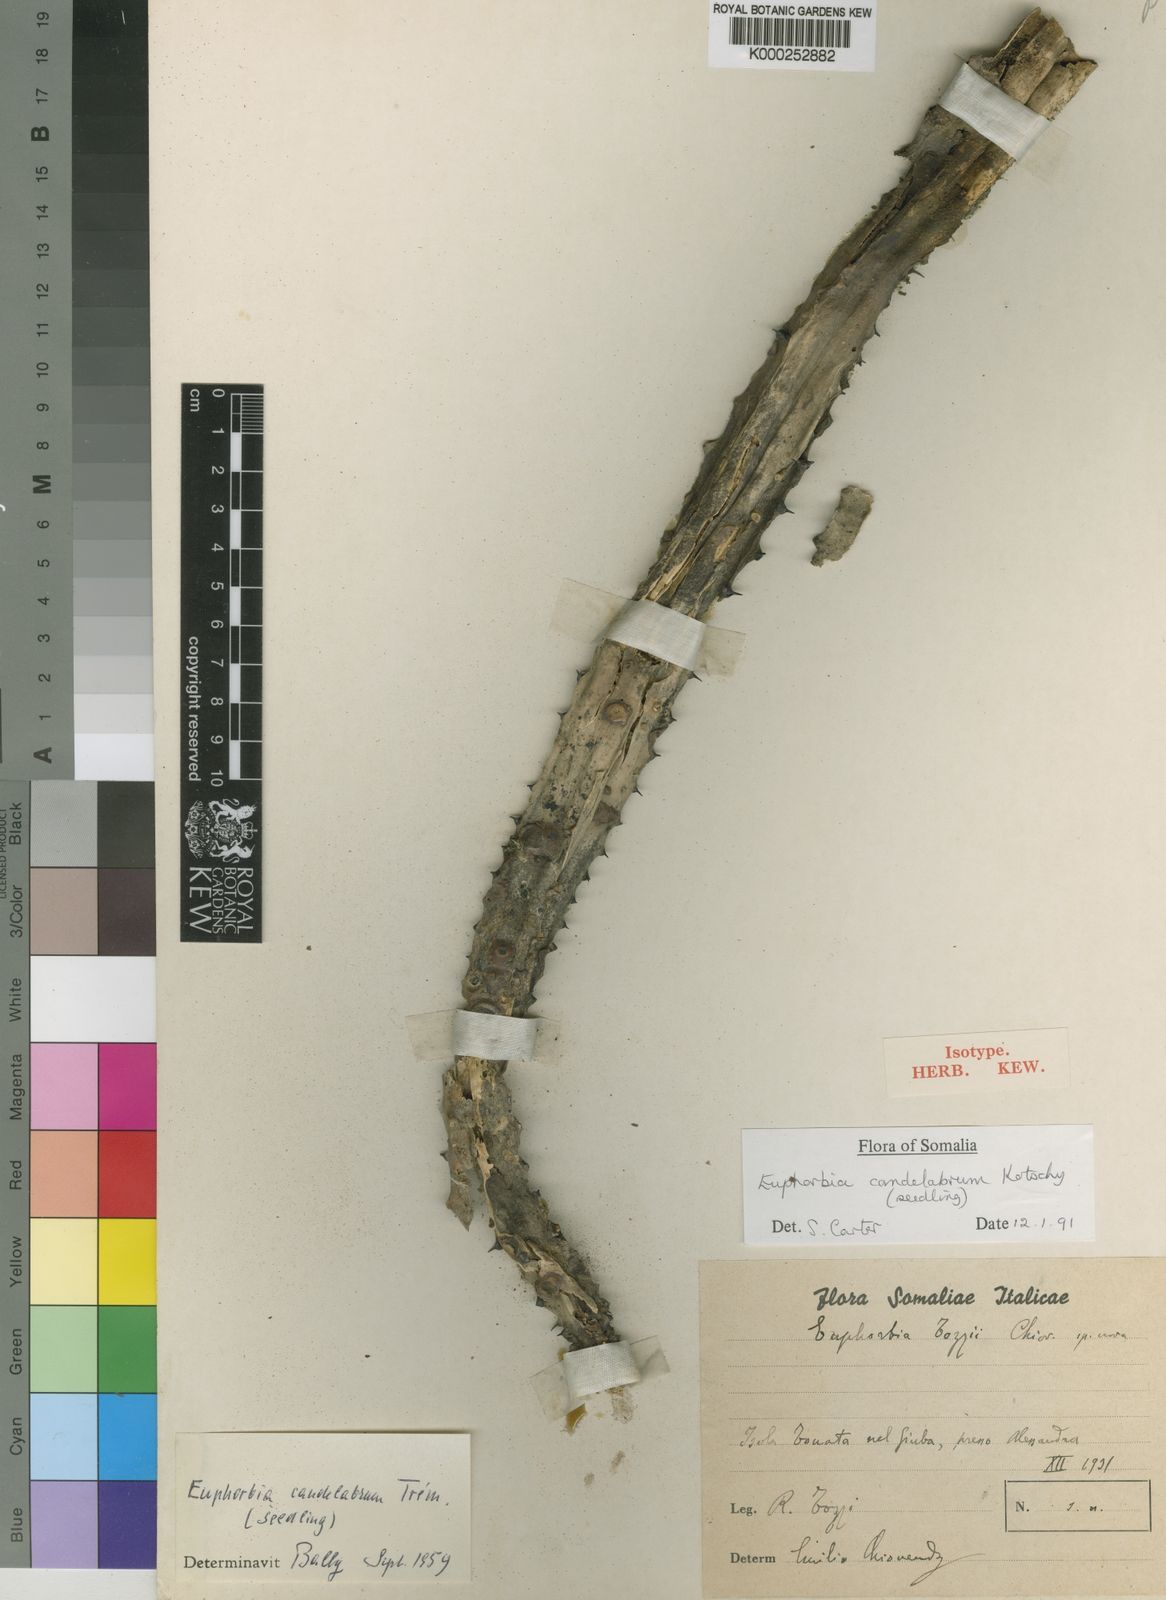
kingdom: Plantae
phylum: Tracheophyta
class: Magnoliopsida
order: Malpighiales
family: Euphorbiaceae
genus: Euphorbia
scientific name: Euphorbia murielii
